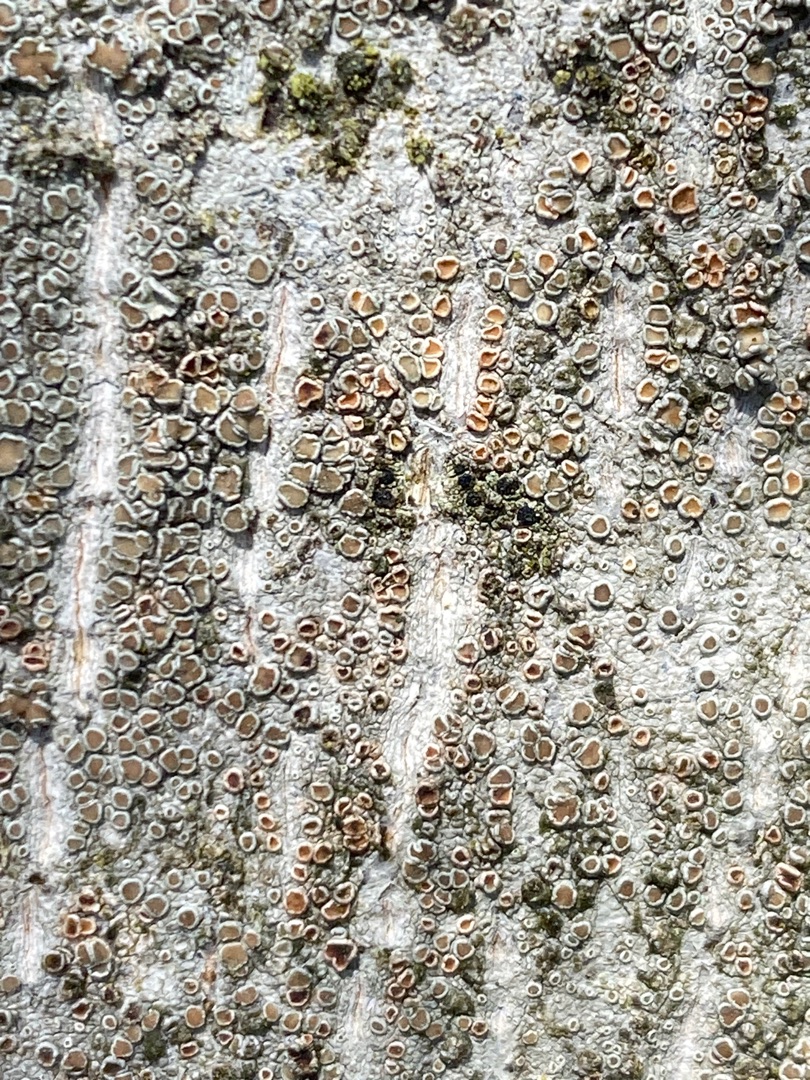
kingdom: Fungi
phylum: Ascomycota
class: Lecanoromycetes
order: Lecanorales
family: Lecanoraceae
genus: Lecanora
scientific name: Lecanora chlarotera
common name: Brun kantskivelav
